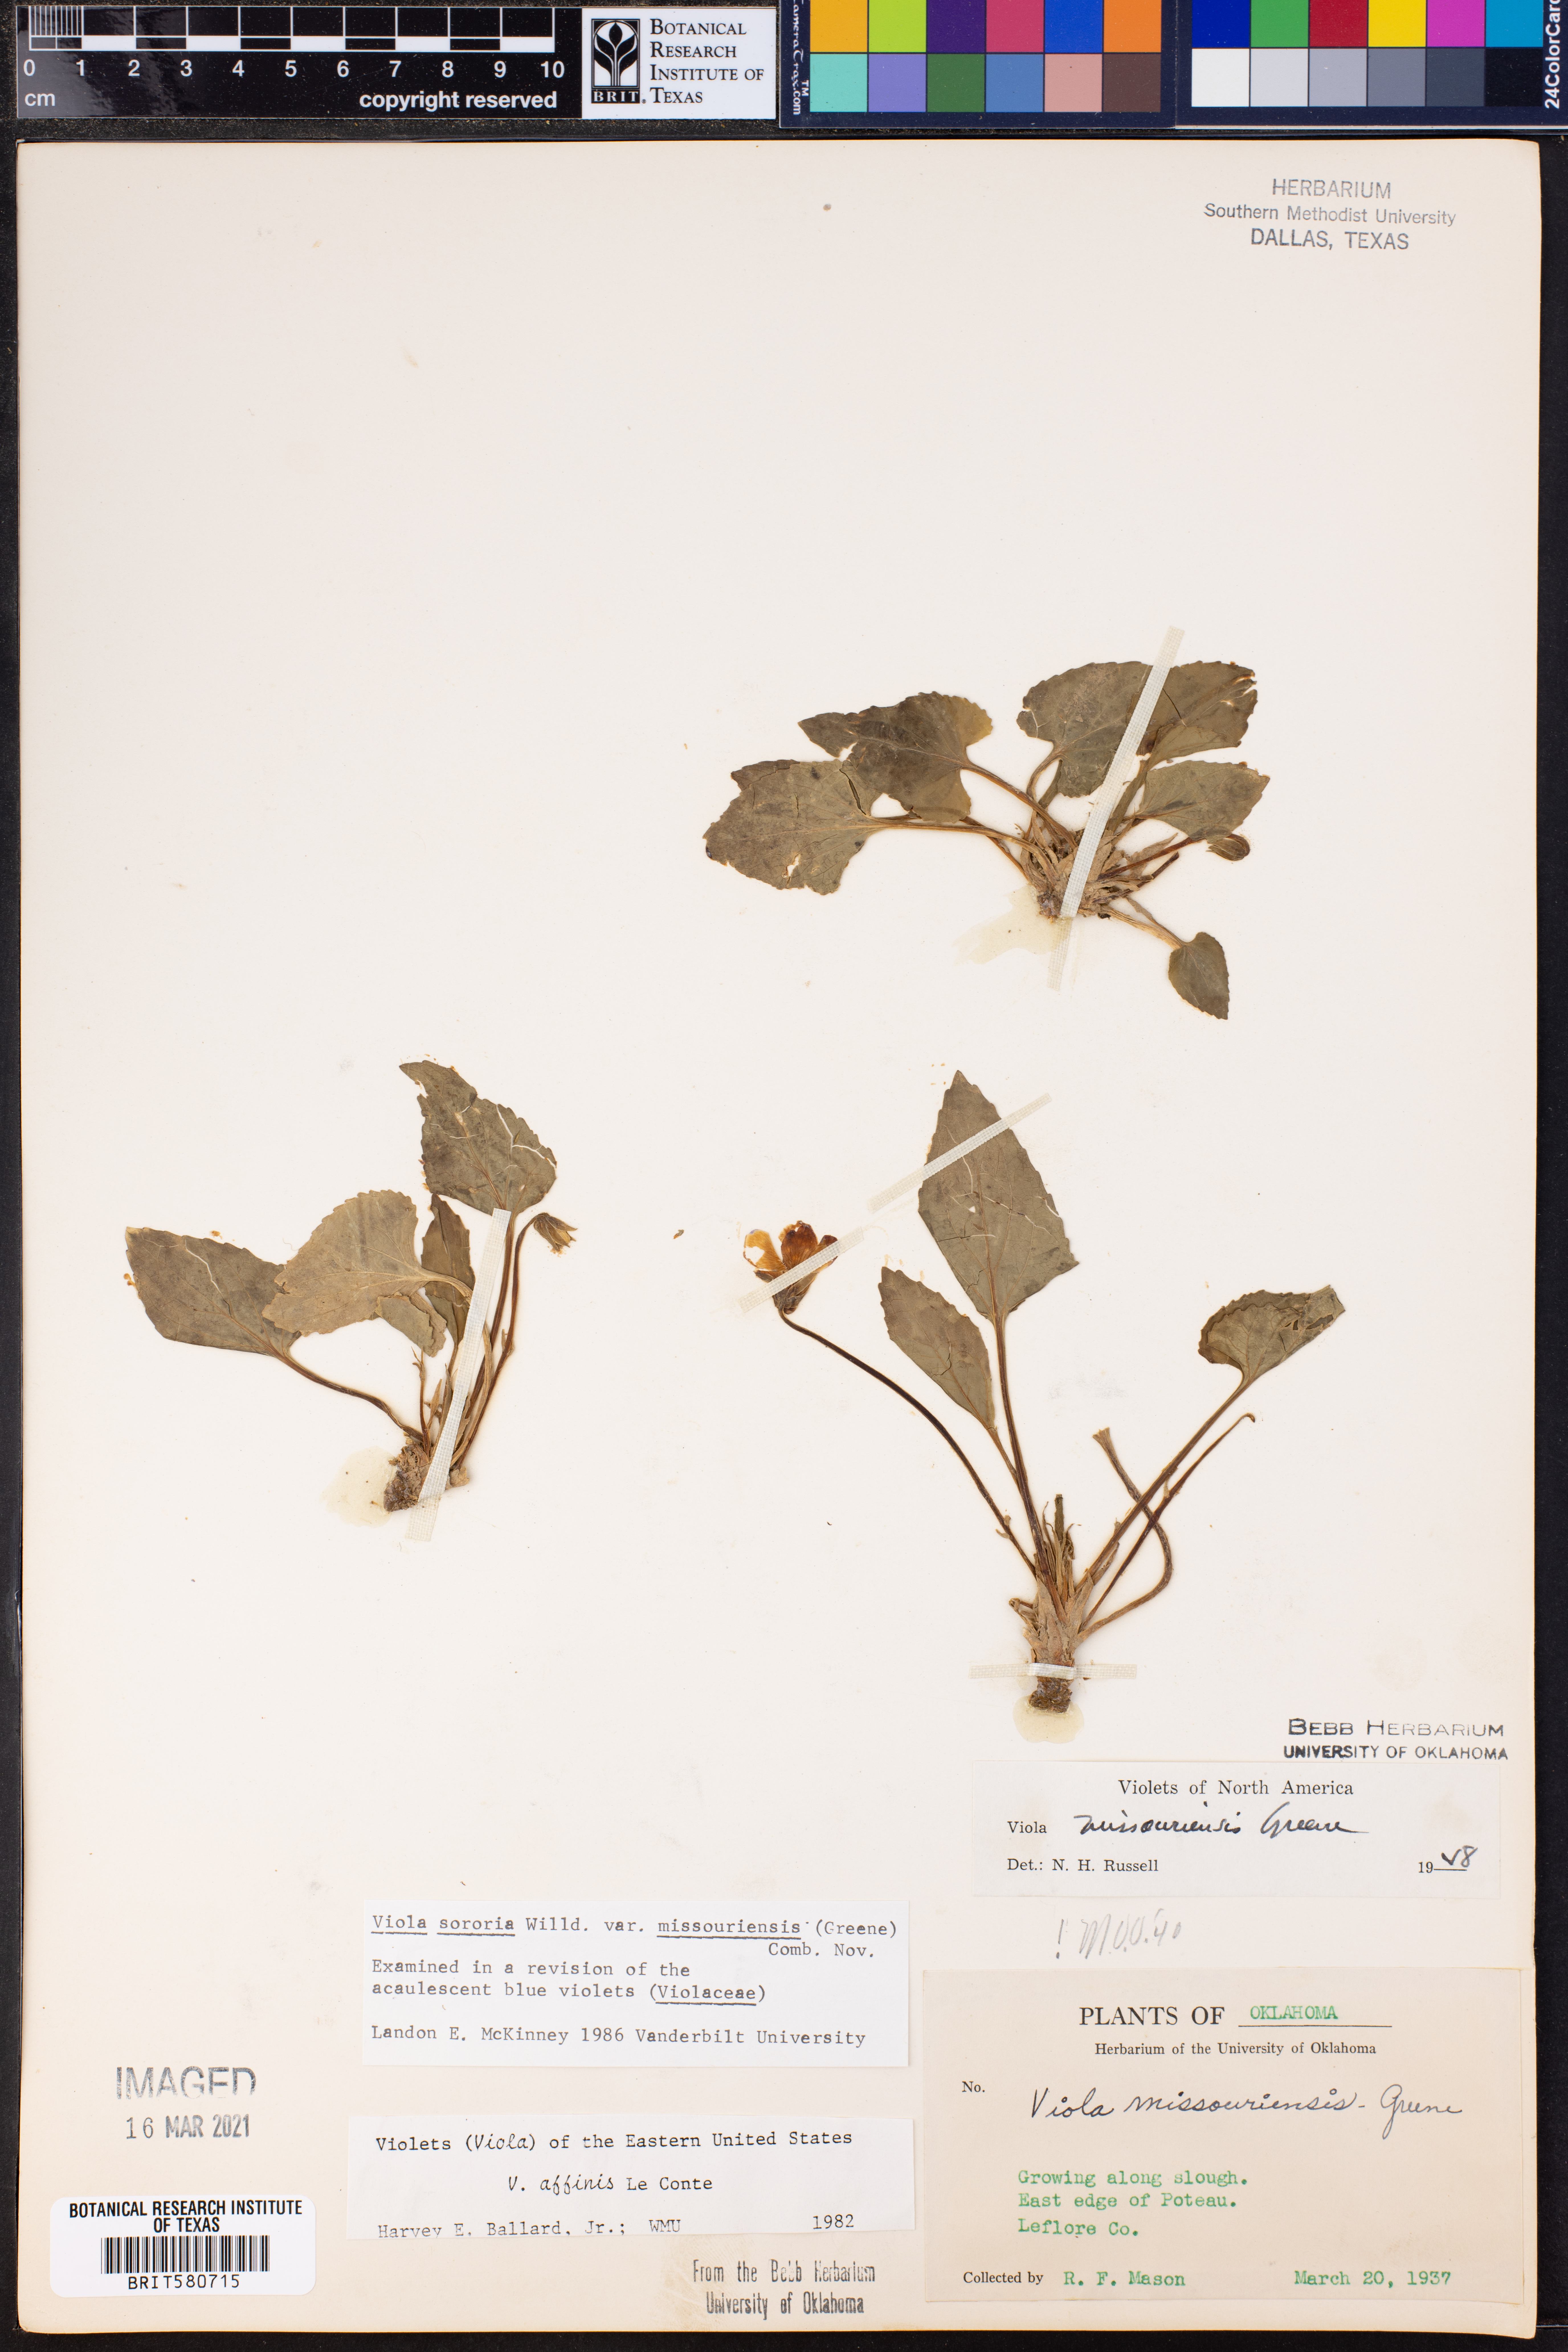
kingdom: Plantae
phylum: Tracheophyta
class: Magnoliopsida
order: Malpighiales
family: Violaceae
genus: Viola
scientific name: Viola missouriensis
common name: Missouri violet
